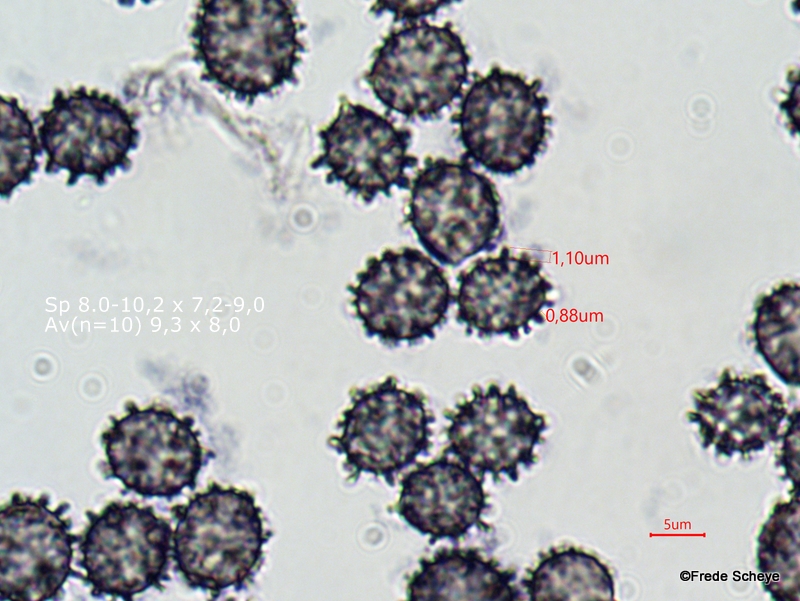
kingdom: Fungi
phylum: Basidiomycota
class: Agaricomycetes
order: Russulales
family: Russulaceae
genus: Russula
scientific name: Russula delica
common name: almindelig tragt-skørhat
